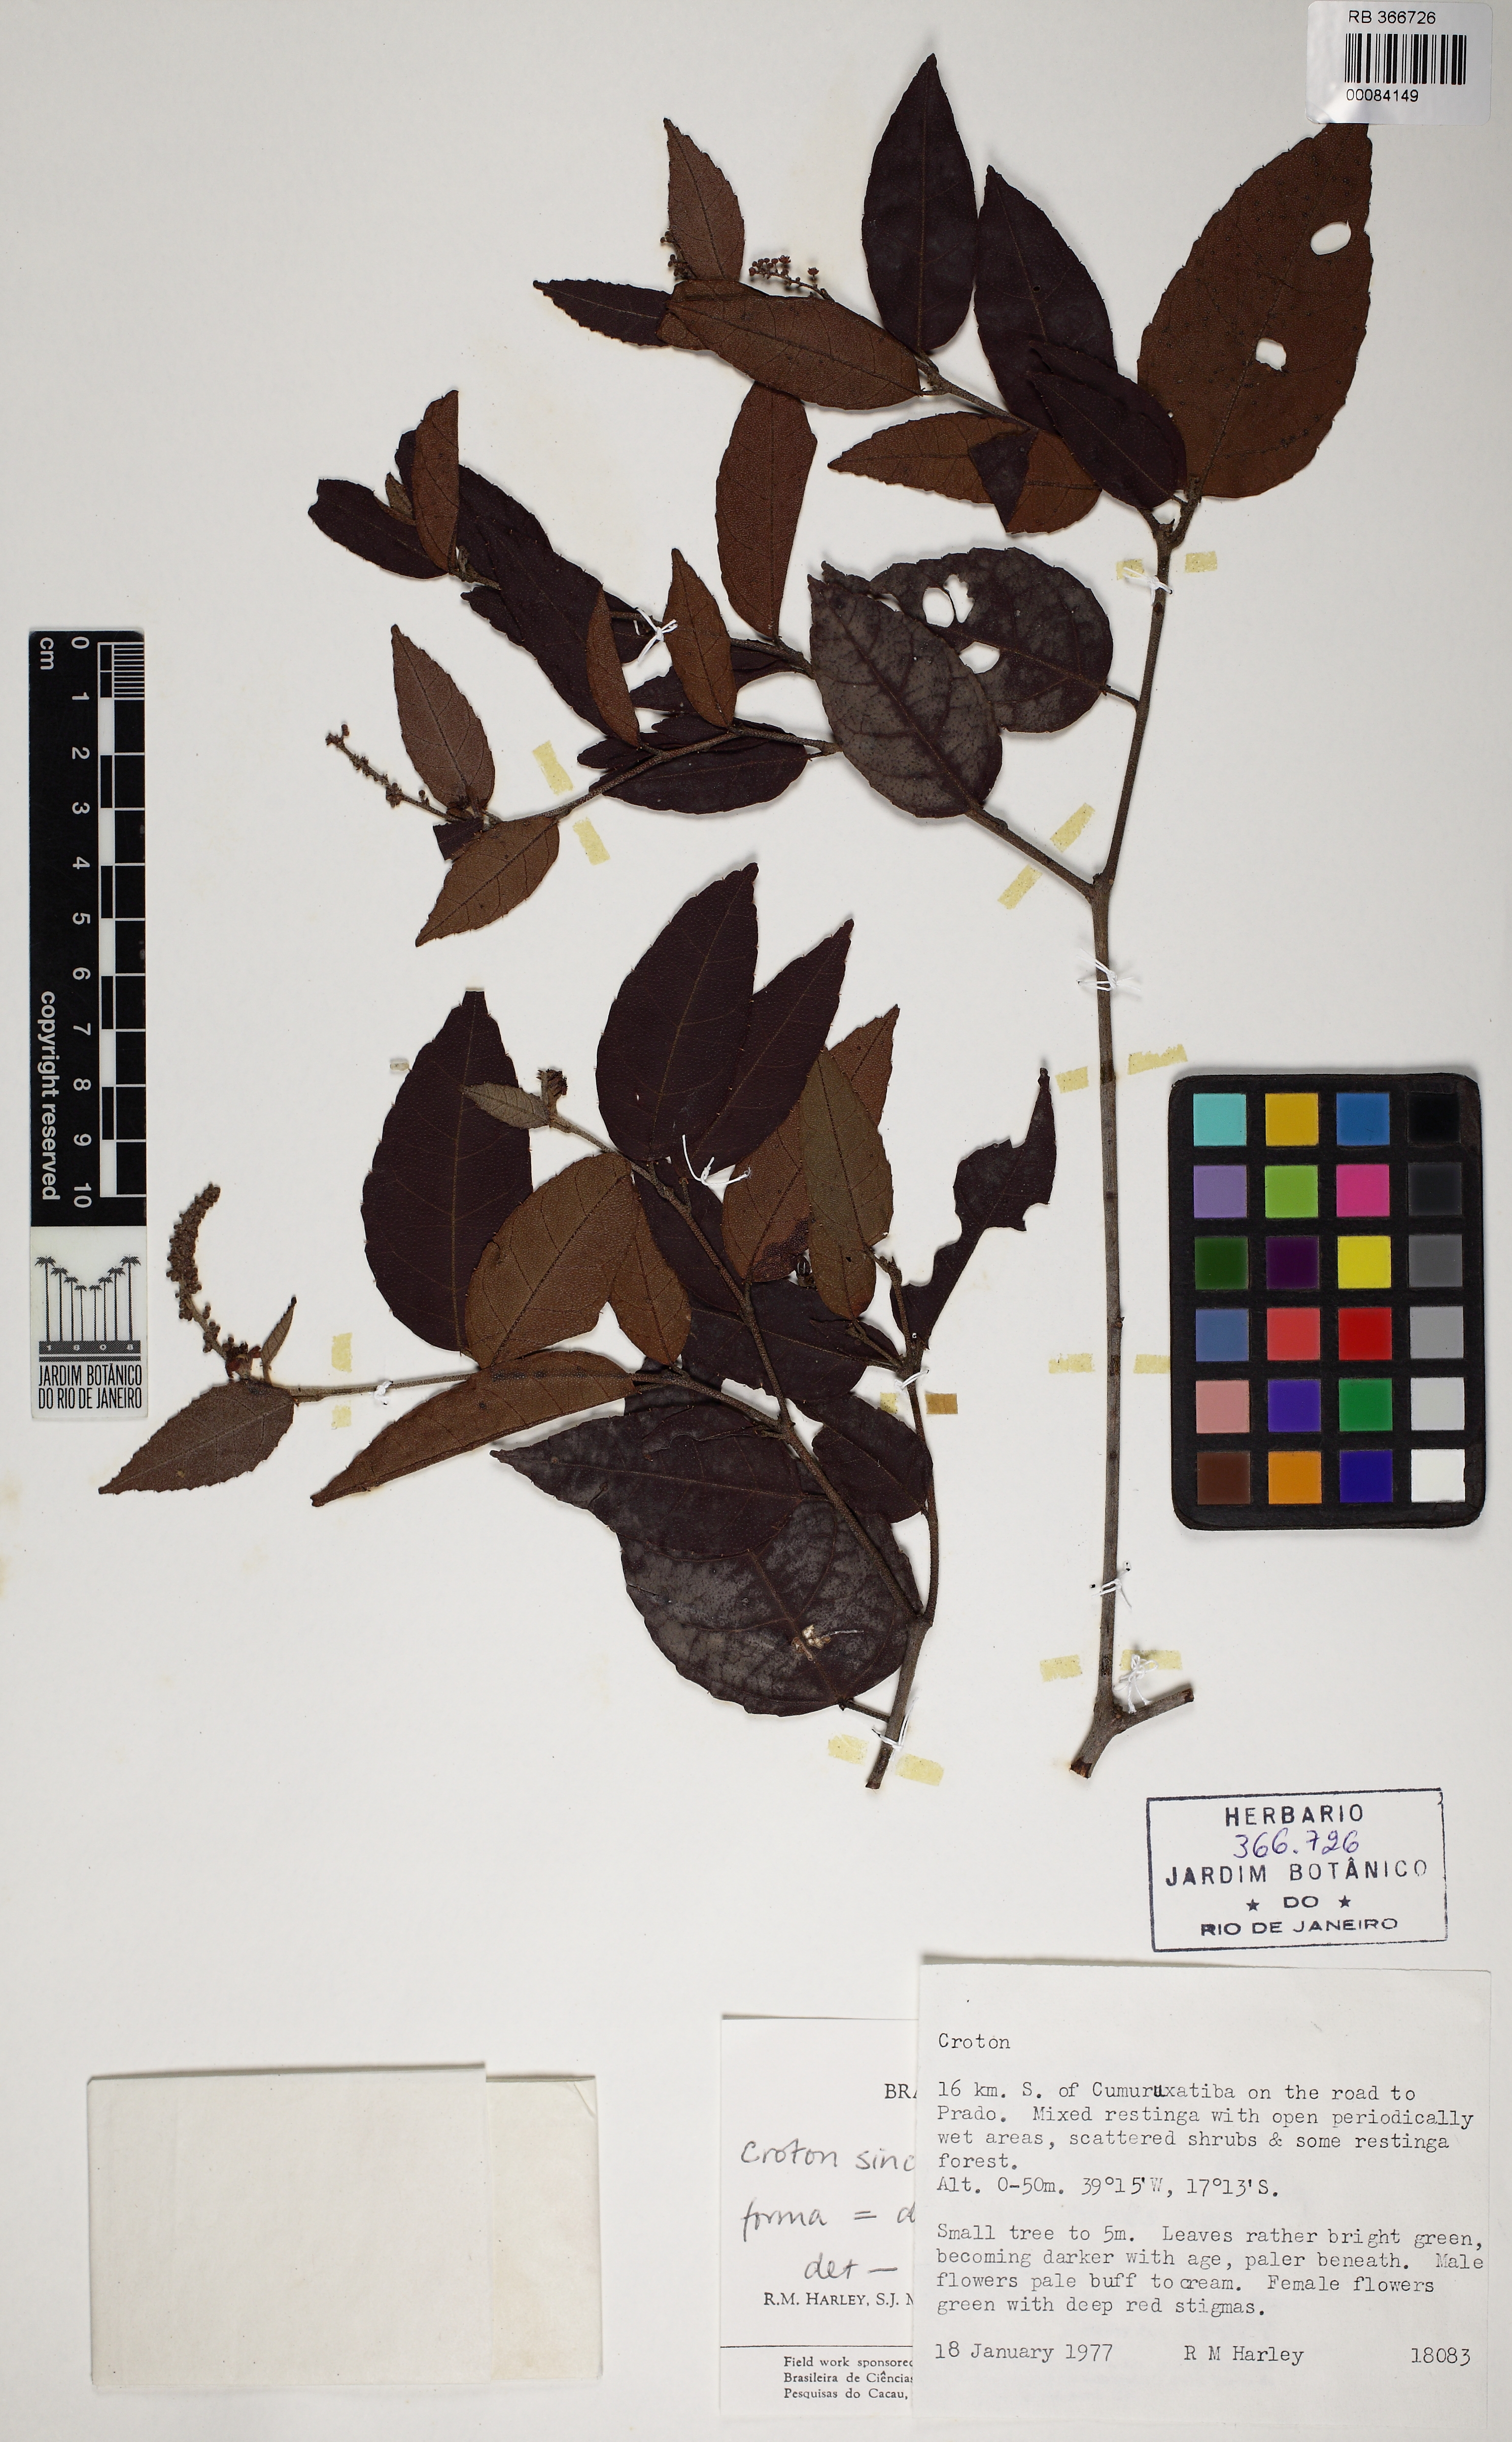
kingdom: Plantae
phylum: Tracheophyta
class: Magnoliopsida
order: Malpighiales
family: Euphorbiaceae
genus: Croton
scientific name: Croton sincorensis
